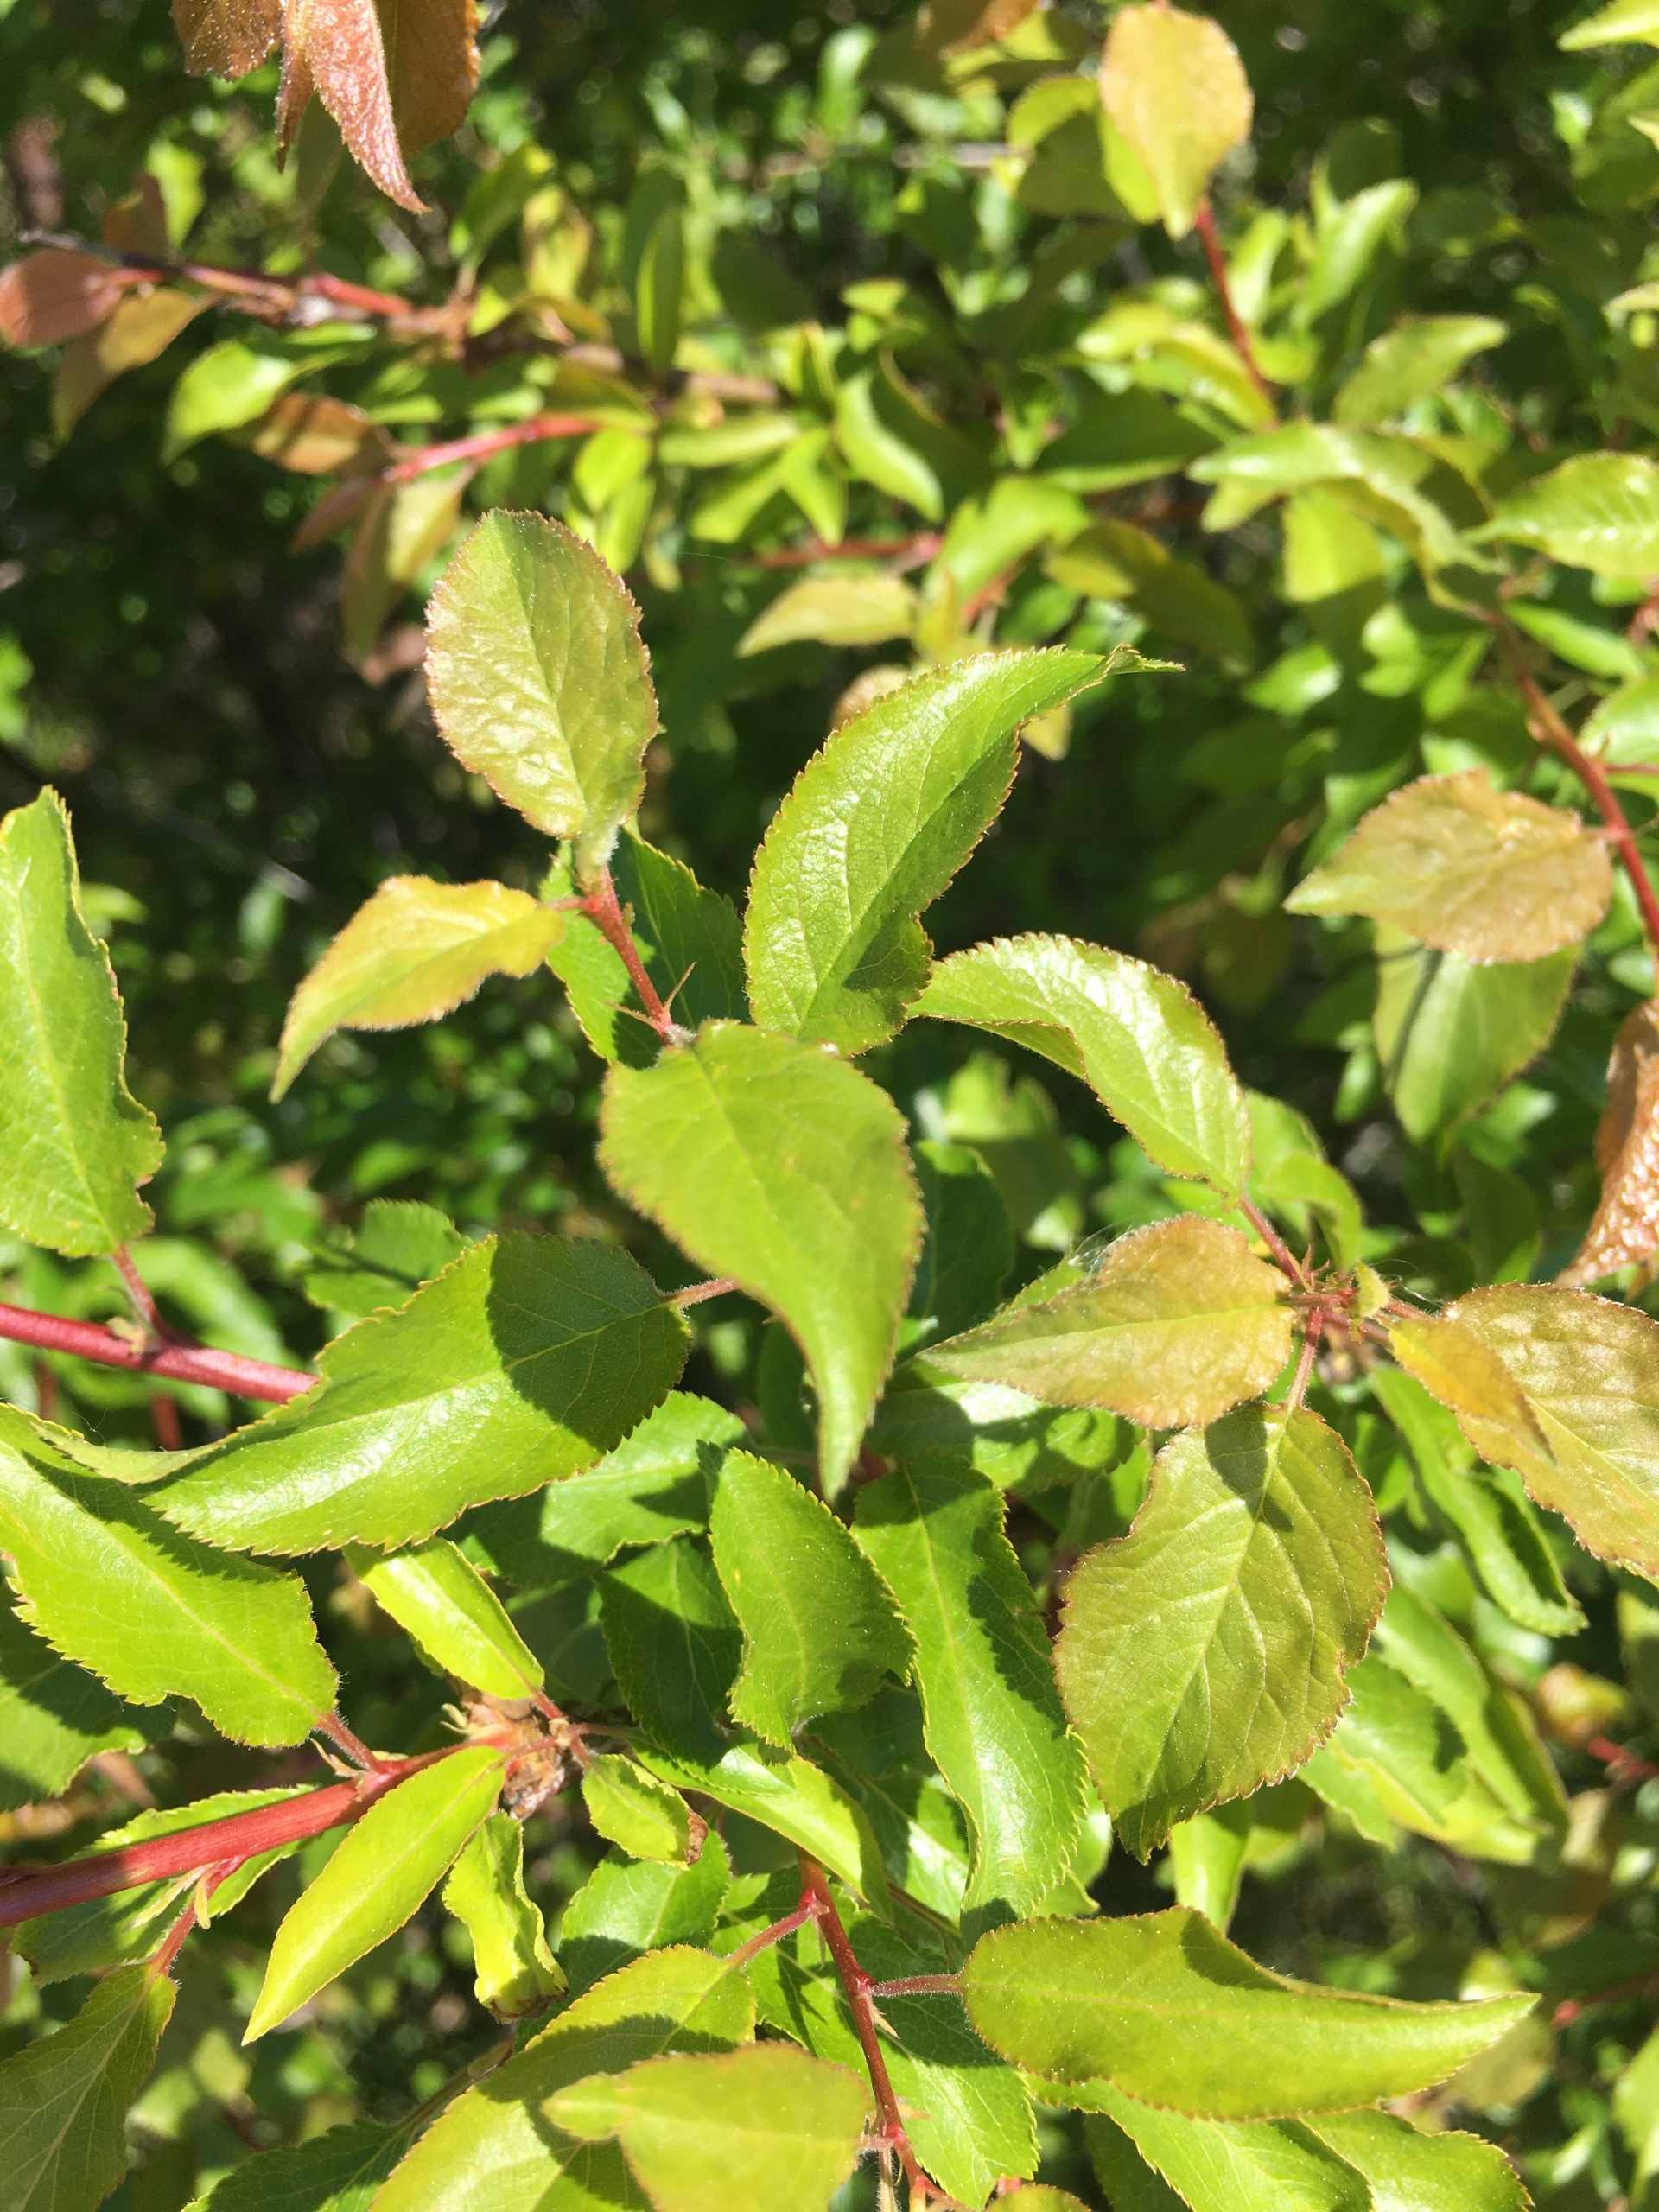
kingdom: Plantae
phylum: Tracheophyta
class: Magnoliopsida
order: Rosales
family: Rosaceae
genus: Prunus
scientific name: Prunus cerasifera
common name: Mirabel
